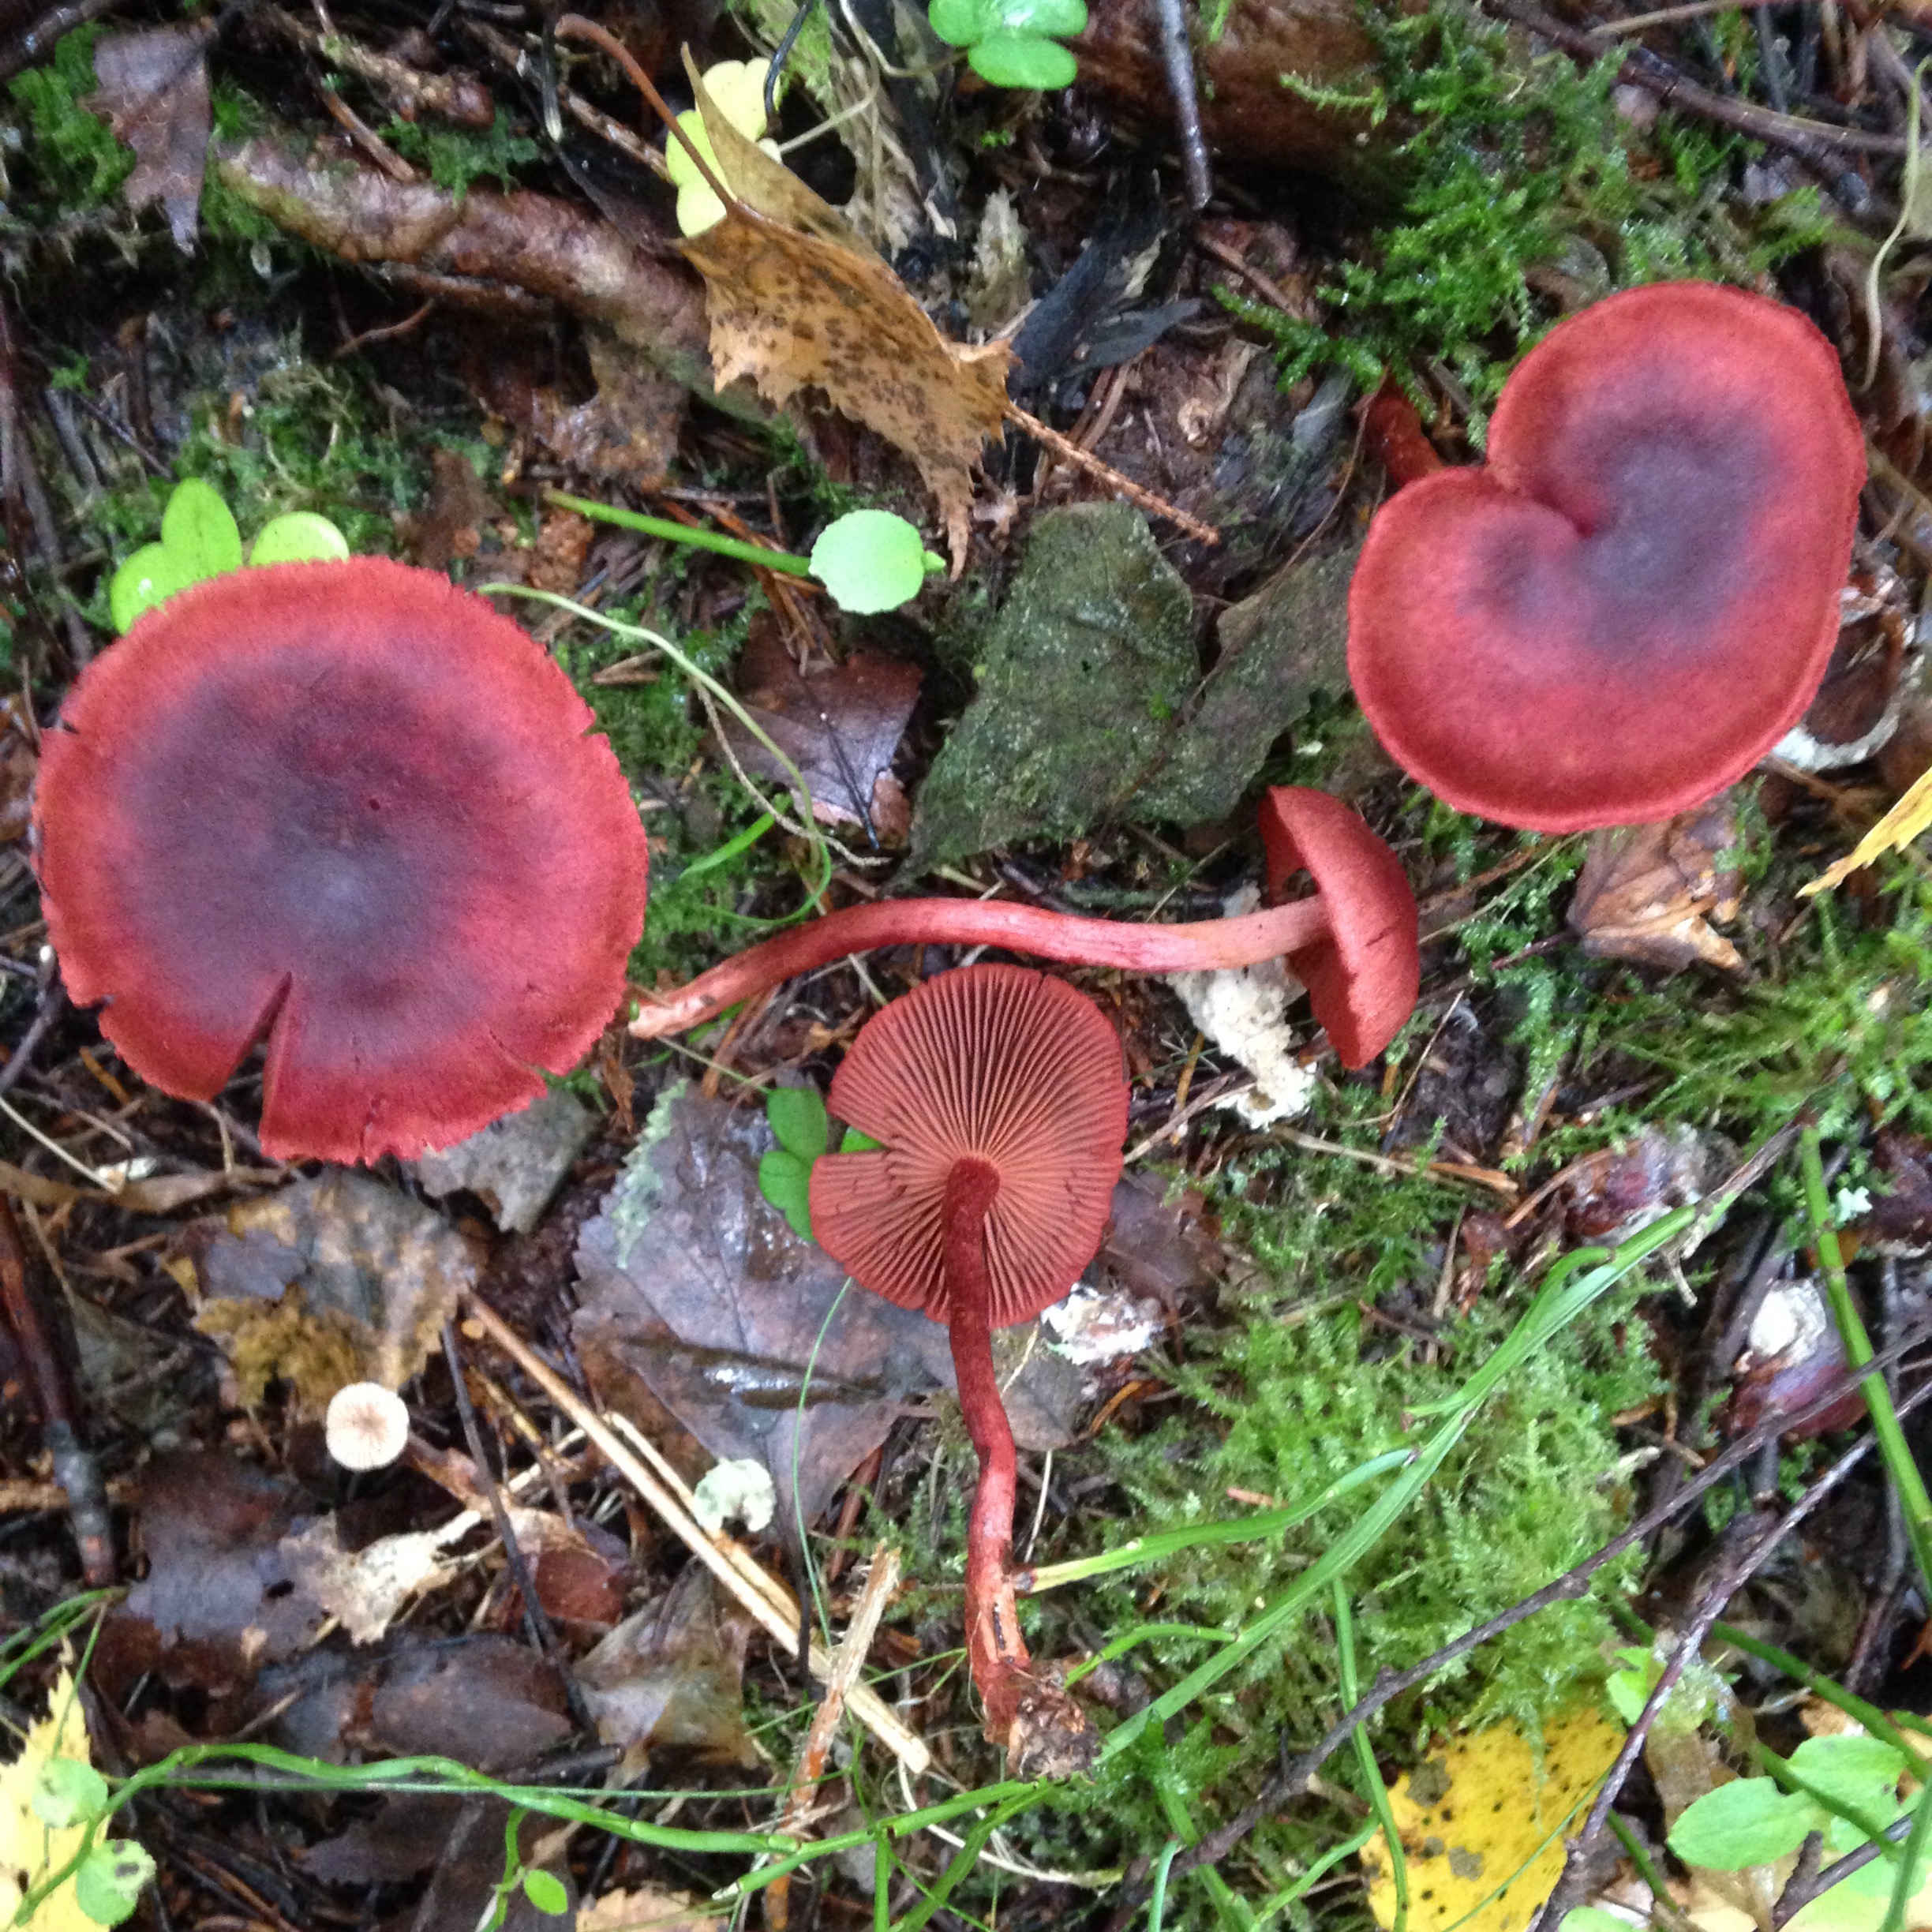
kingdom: Fungi
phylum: Basidiomycota
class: Agaricomycetes
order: Agaricales
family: Cortinariaceae
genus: Cortinarius
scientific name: Cortinarius sanguineus
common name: Bloodred webcap
